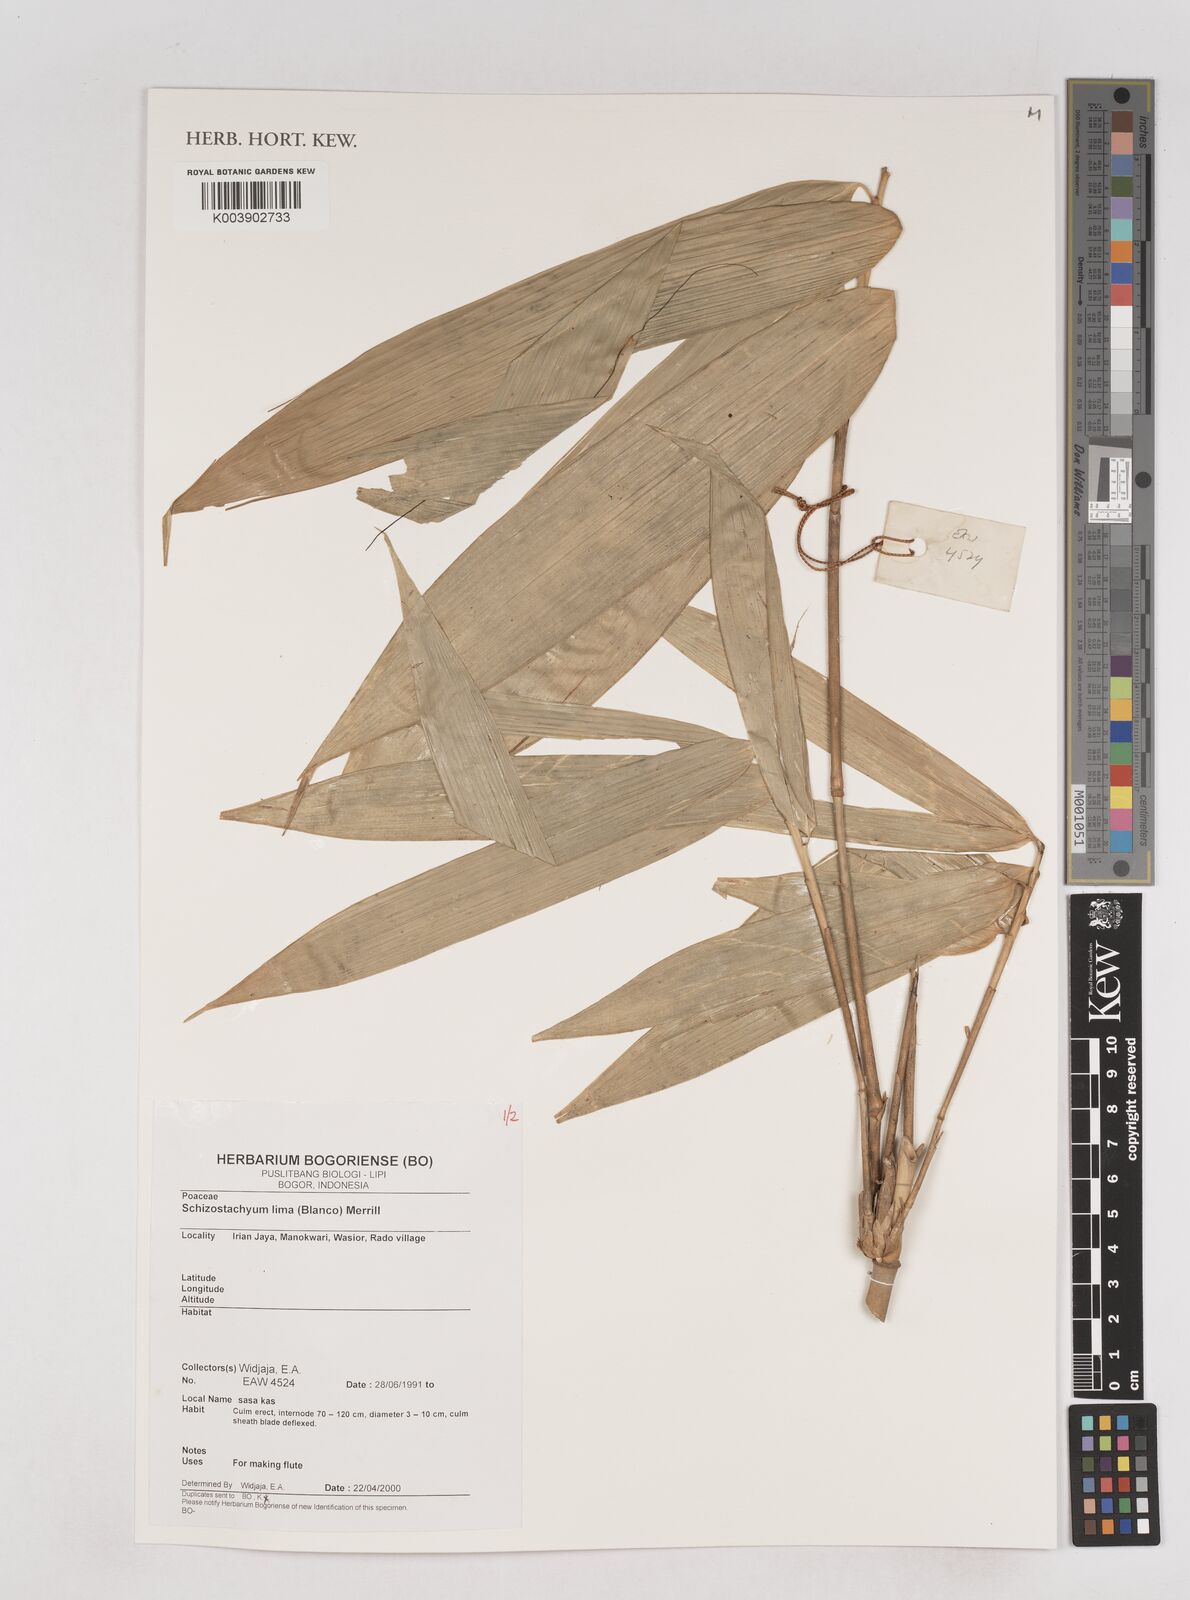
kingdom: Plantae
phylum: Tracheophyta
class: Liliopsida
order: Poales
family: Poaceae
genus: Schizostachyum
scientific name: Schizostachyum
